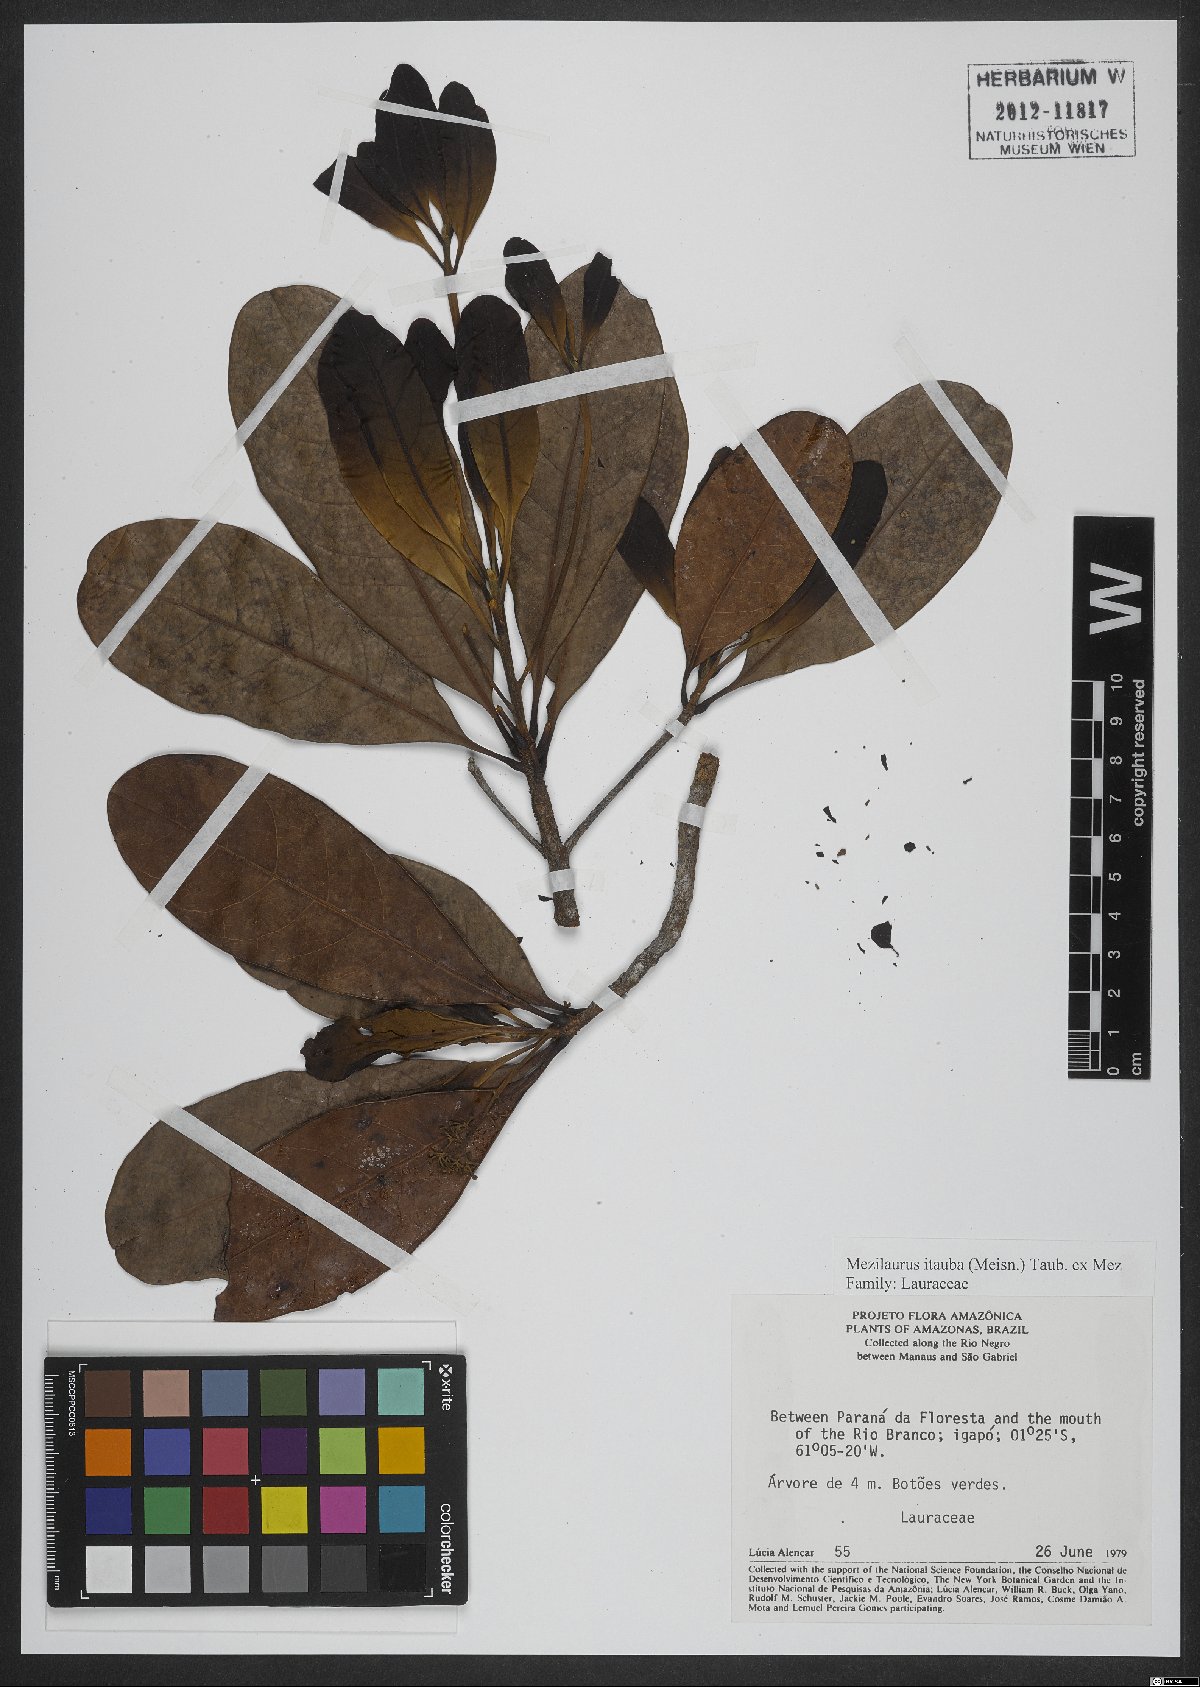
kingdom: Plantae
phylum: Tracheophyta
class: Magnoliopsida
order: Laurales
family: Lauraceae
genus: Mezilaurus
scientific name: Mezilaurus ita-uba
